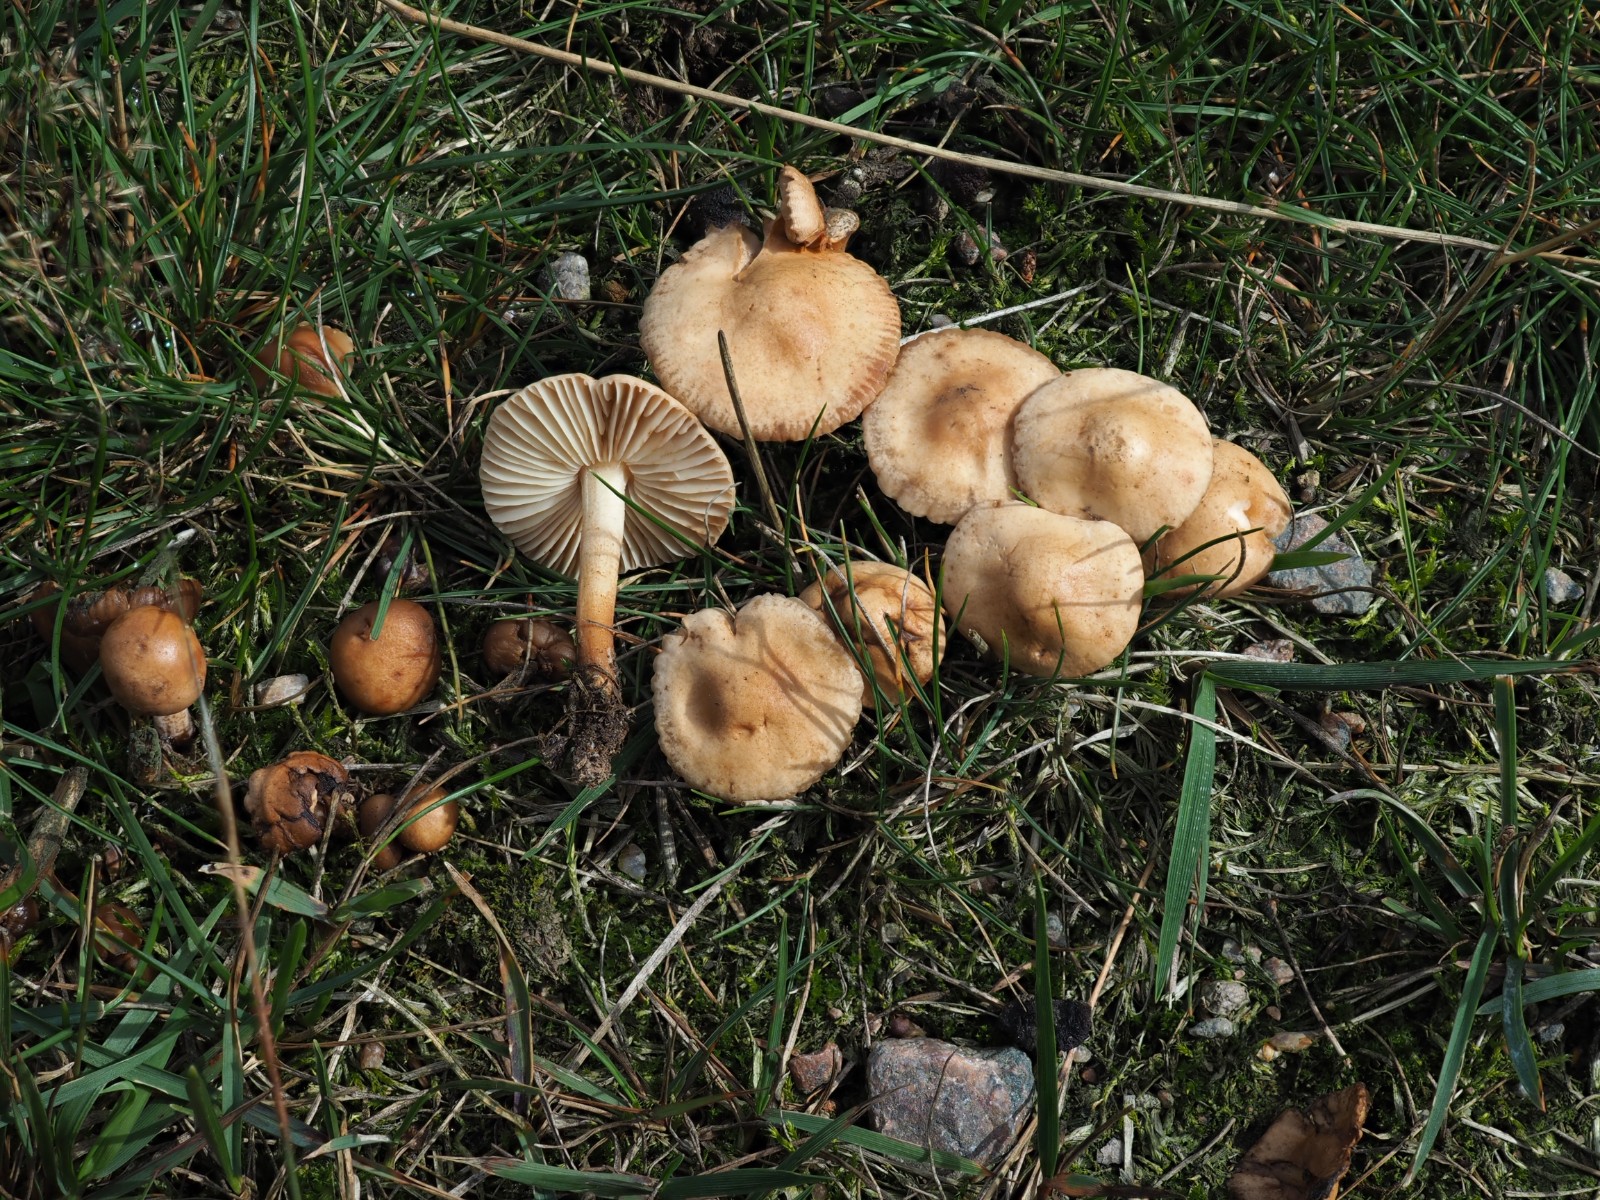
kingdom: Fungi
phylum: Basidiomycota
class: Agaricomycetes
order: Agaricales
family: Marasmiaceae
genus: Marasmius
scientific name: Marasmius oreades
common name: elledans-bruskhat
